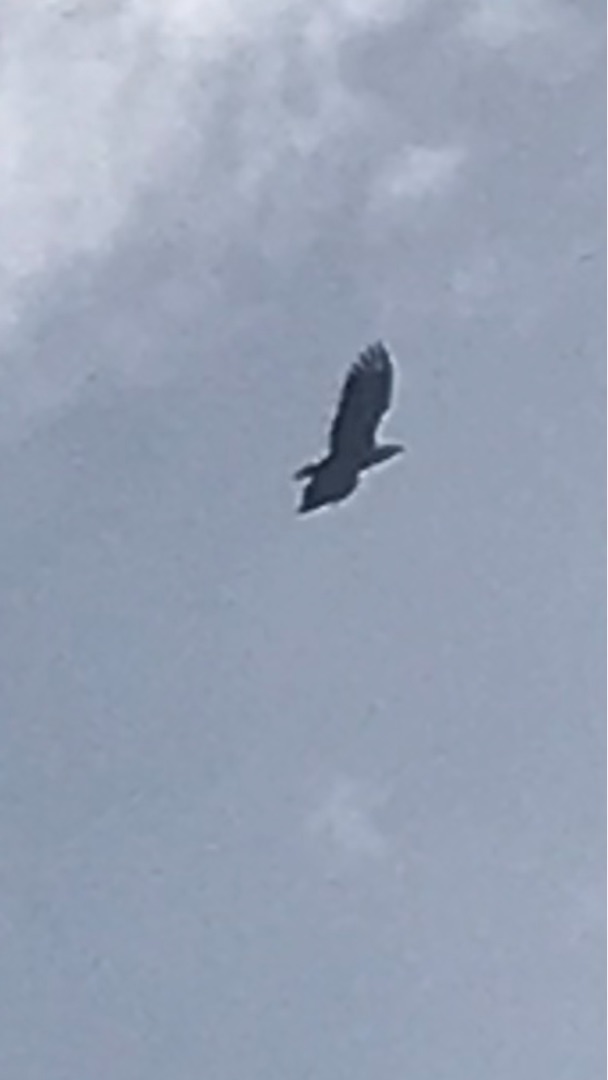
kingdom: Animalia
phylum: Chordata
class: Aves
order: Accipitriformes
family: Accipitridae
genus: Haliaeetus
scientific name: Haliaeetus albicilla
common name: Havørn
